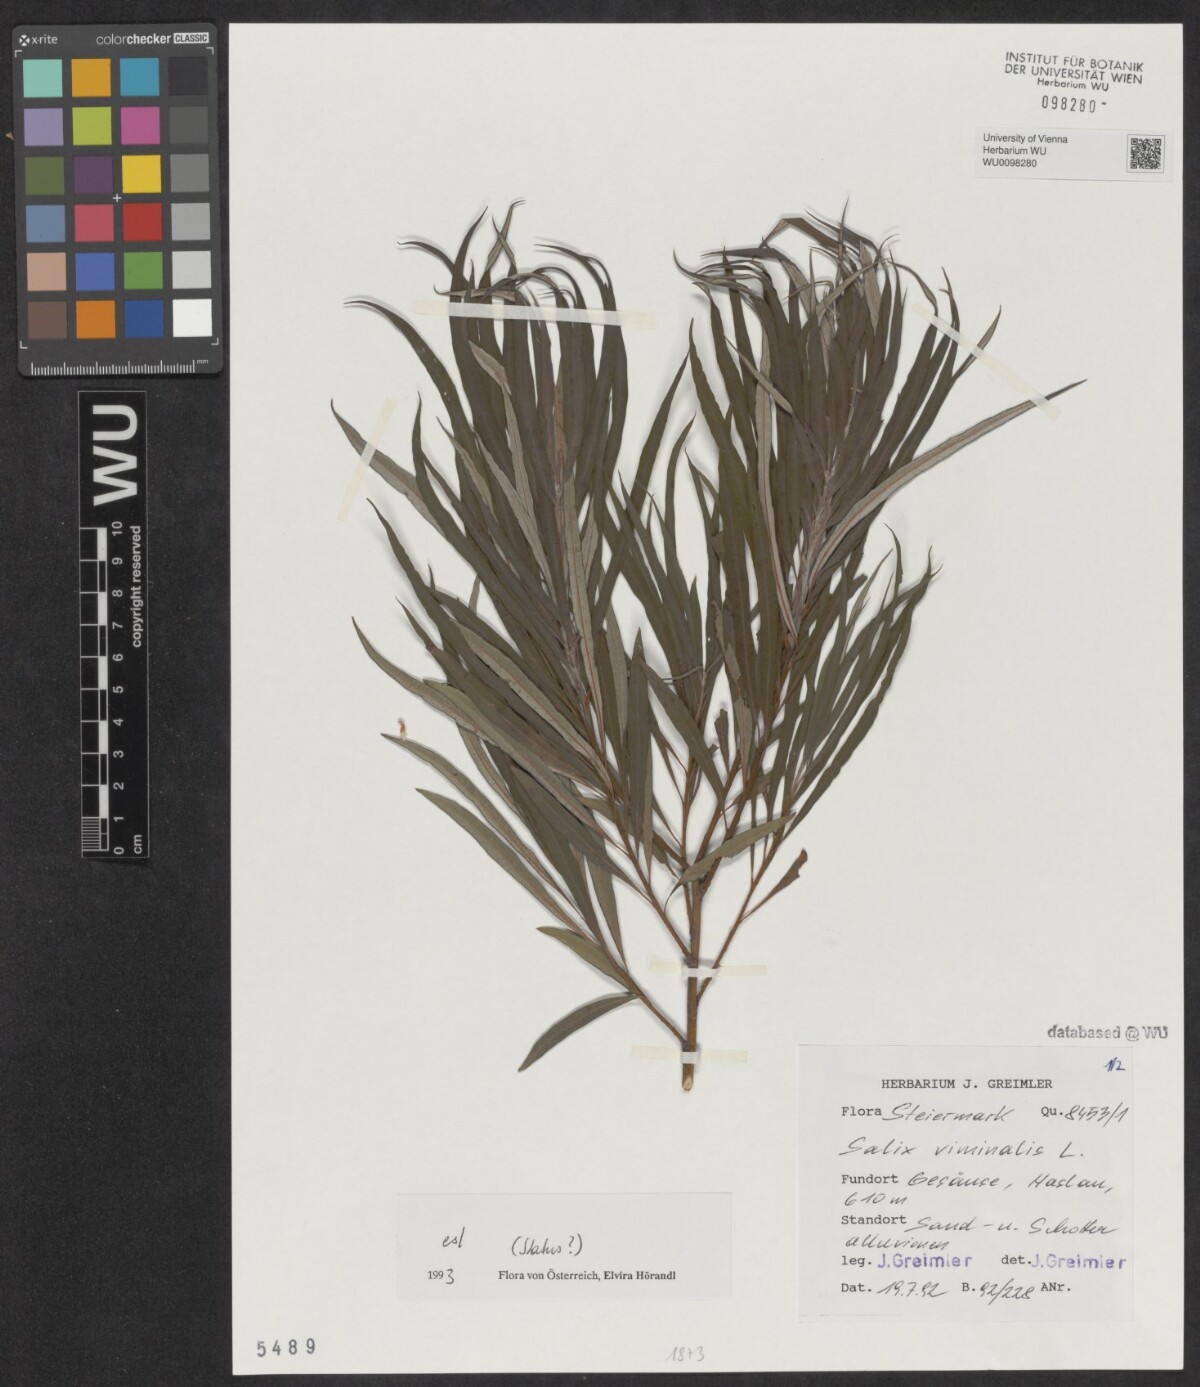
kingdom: Plantae
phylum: Tracheophyta
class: Magnoliopsida
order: Malpighiales
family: Salicaceae
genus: Salix
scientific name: Salix viminalis
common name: Osier
